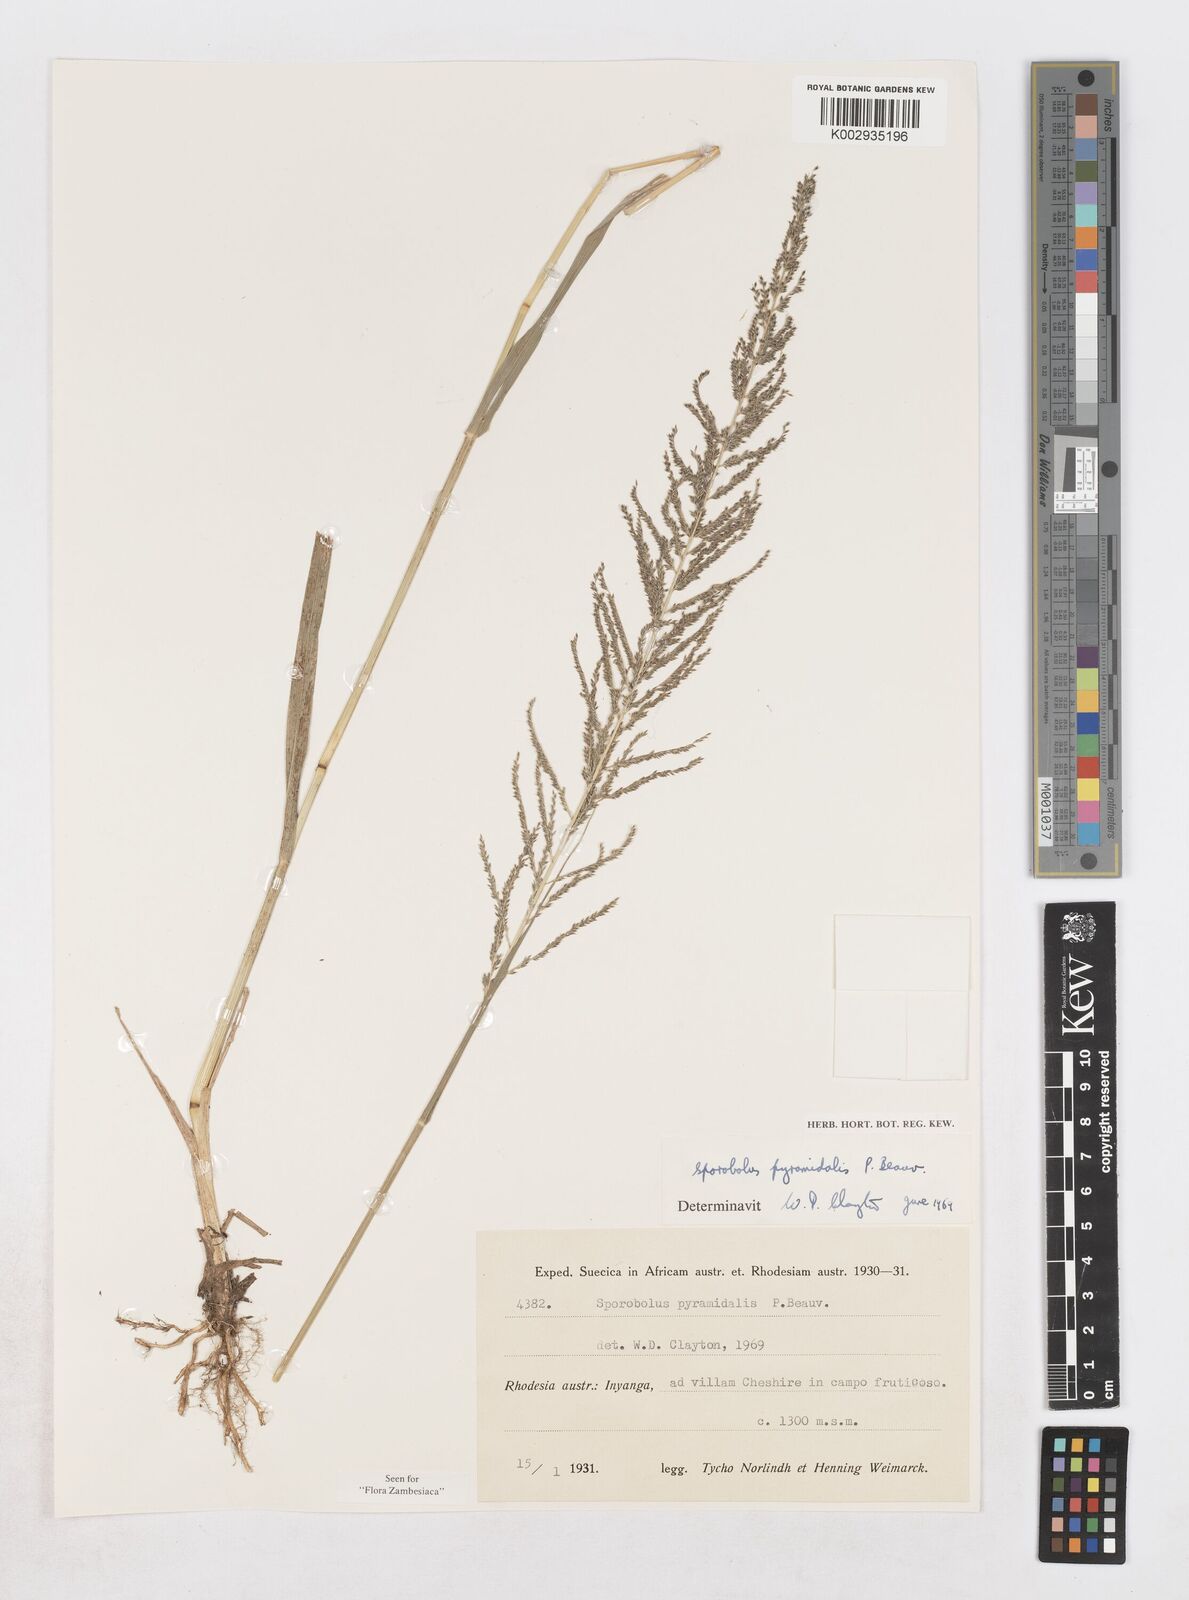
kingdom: Plantae
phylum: Tracheophyta
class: Liliopsida
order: Poales
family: Poaceae
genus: Sporobolus
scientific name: Sporobolus pyramidalis
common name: West indian dropseed
